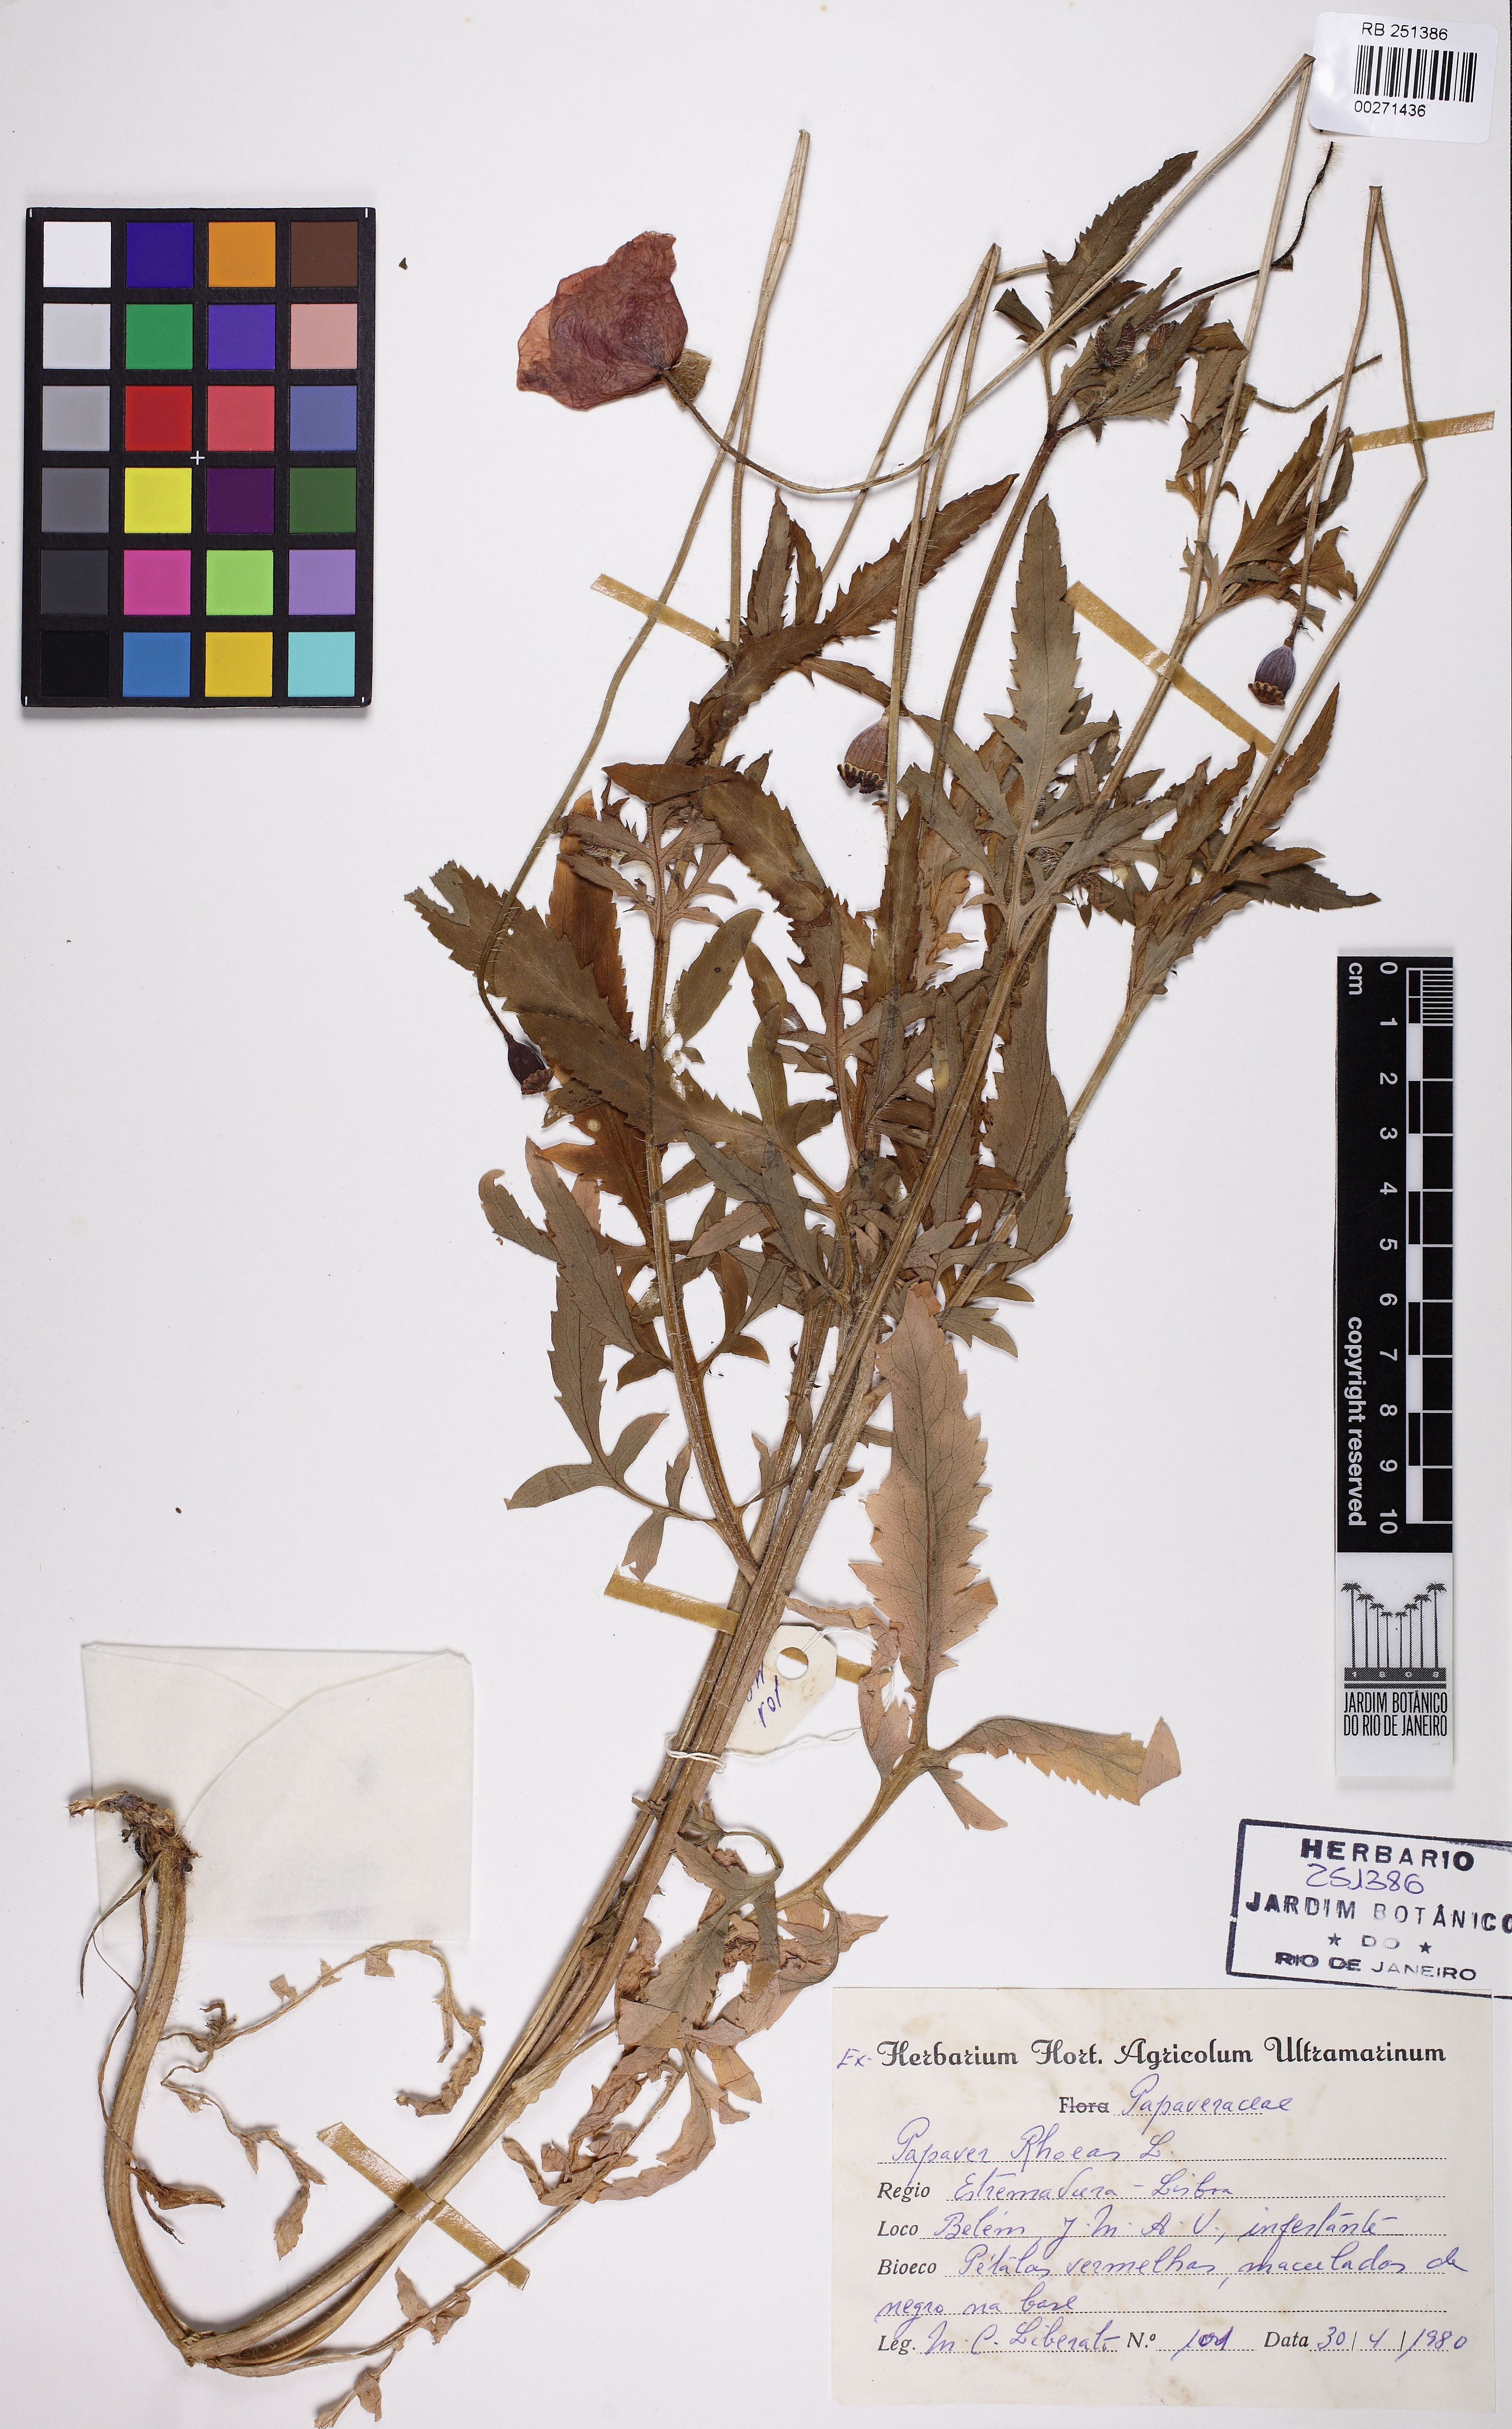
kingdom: Plantae
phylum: Tracheophyta
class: Magnoliopsida
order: Ranunculales
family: Papaveraceae
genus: Papaver
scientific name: Papaver rhoeas
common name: Corn poppy
